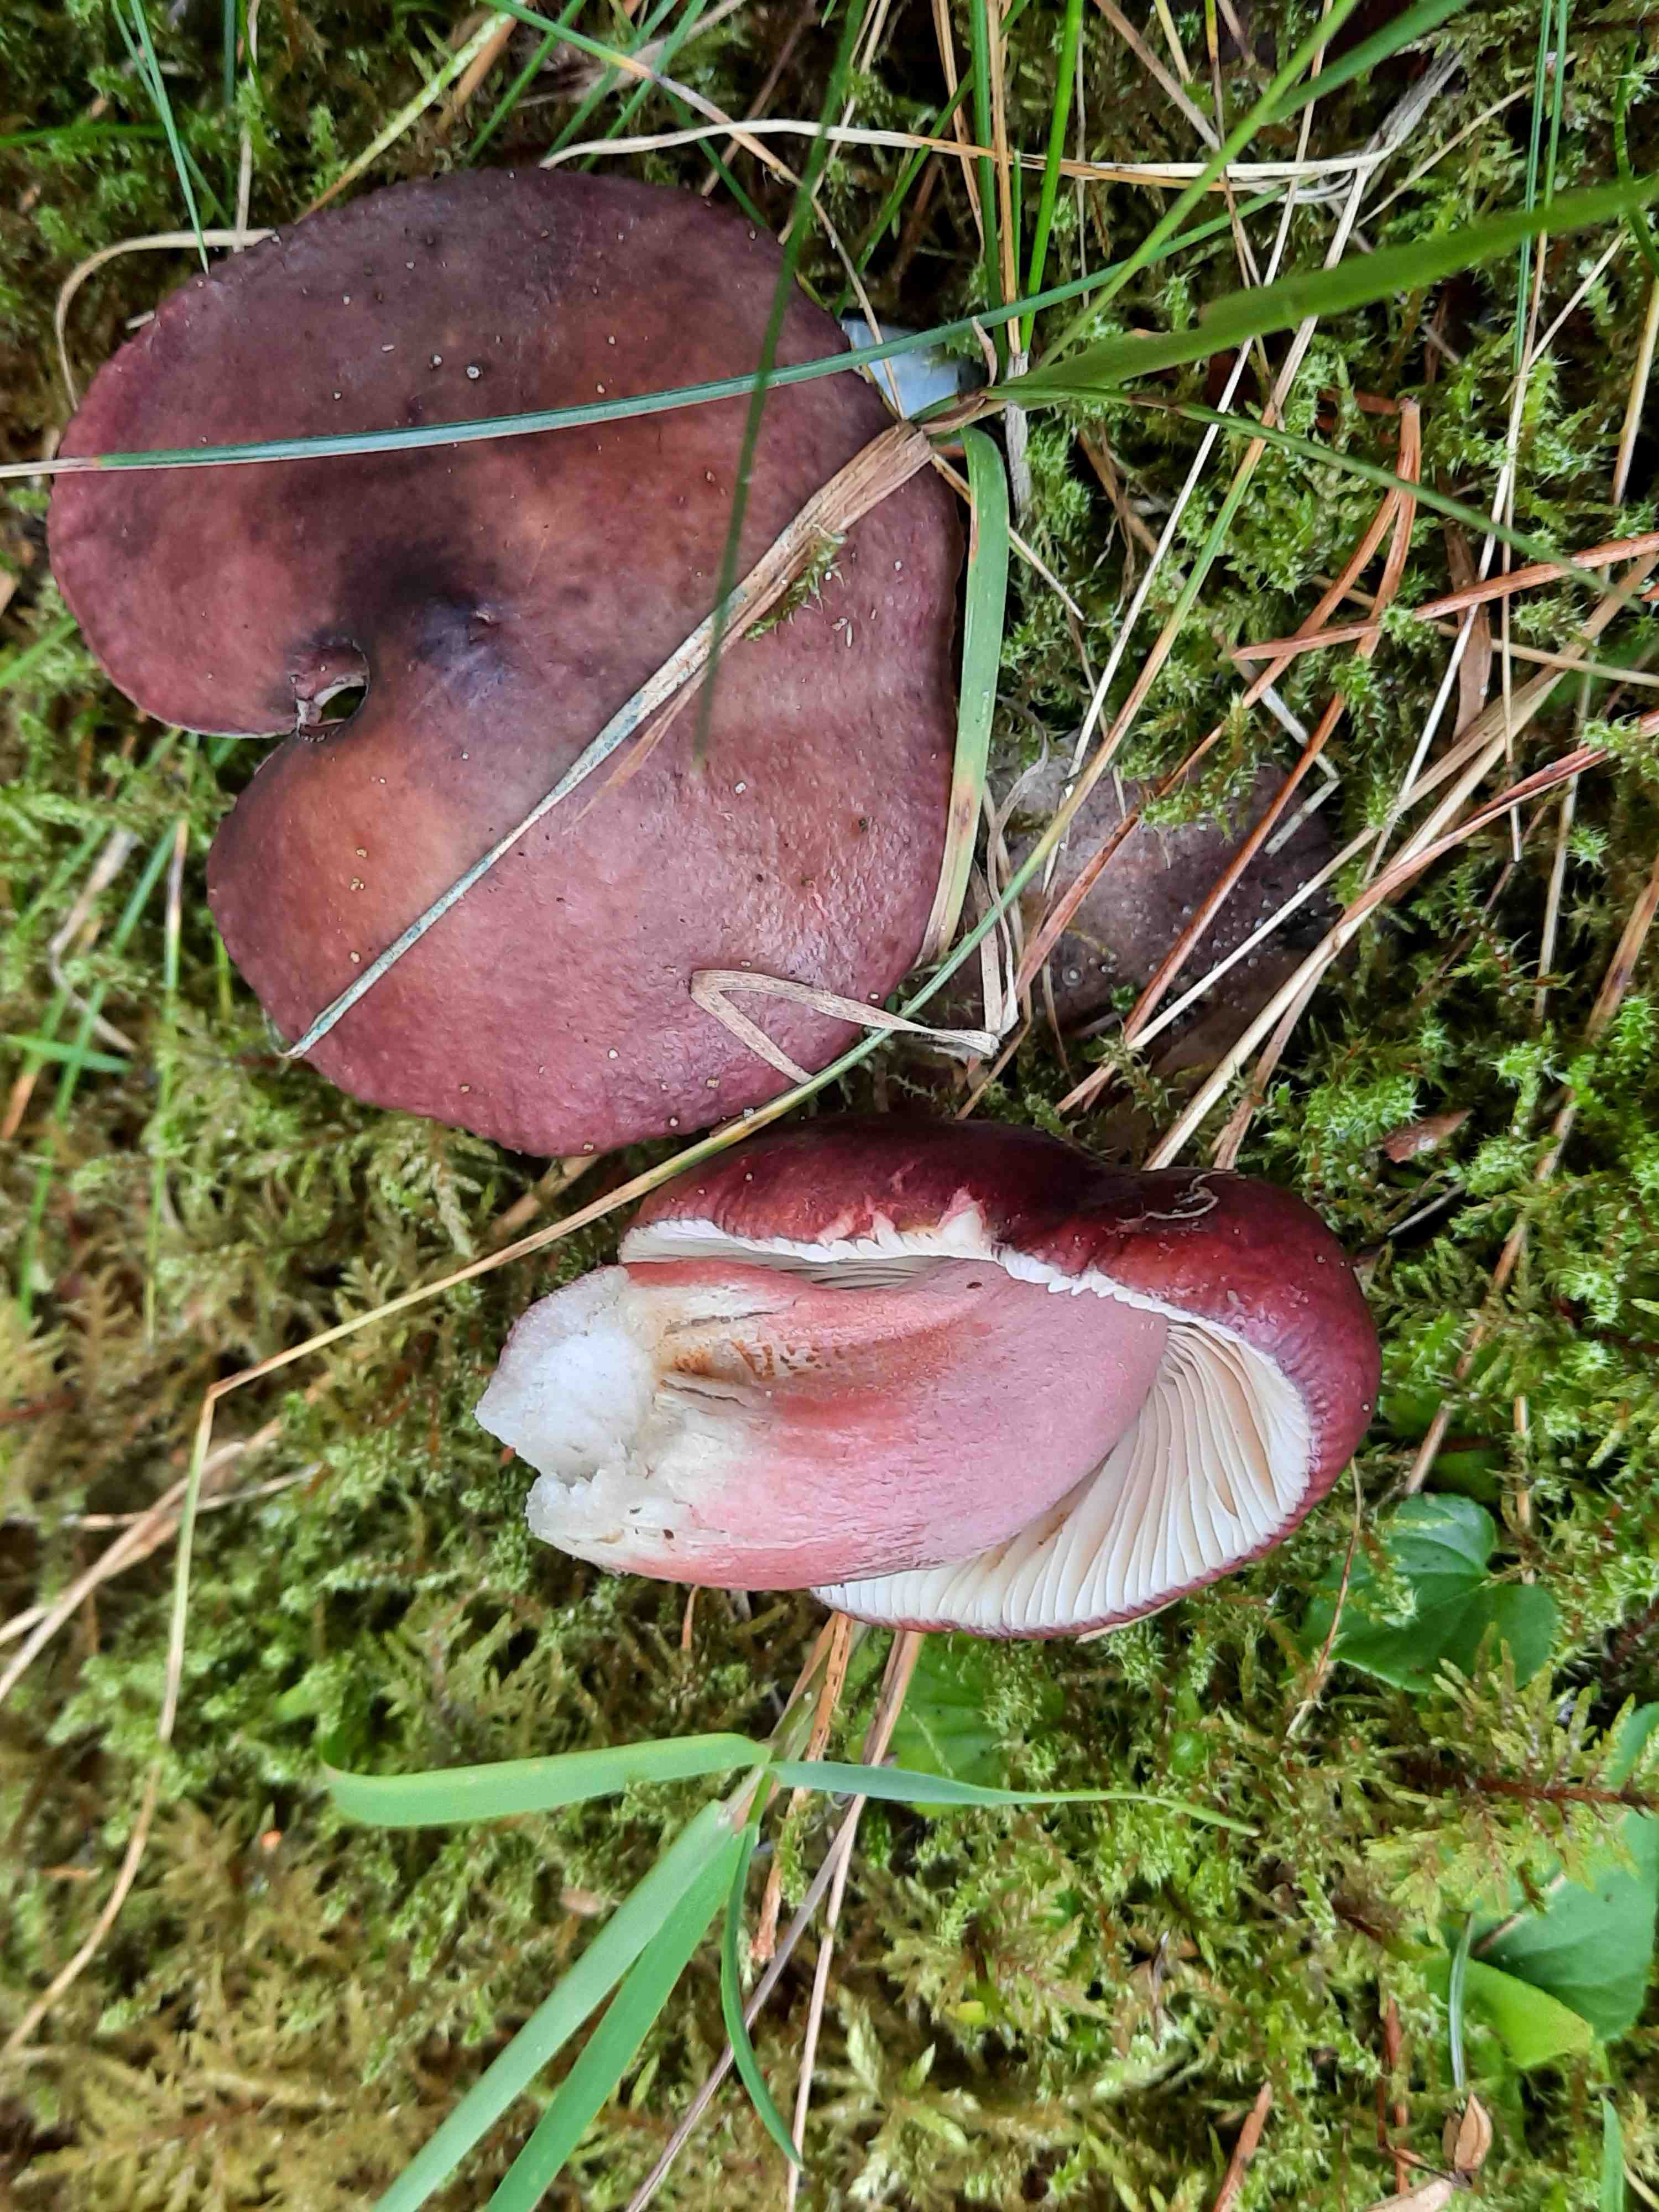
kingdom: Fungi
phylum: Basidiomycota
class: Agaricomycetes
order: Russulales
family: Russulaceae
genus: Russula
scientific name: Russula queletii
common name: Quélets skørhat
